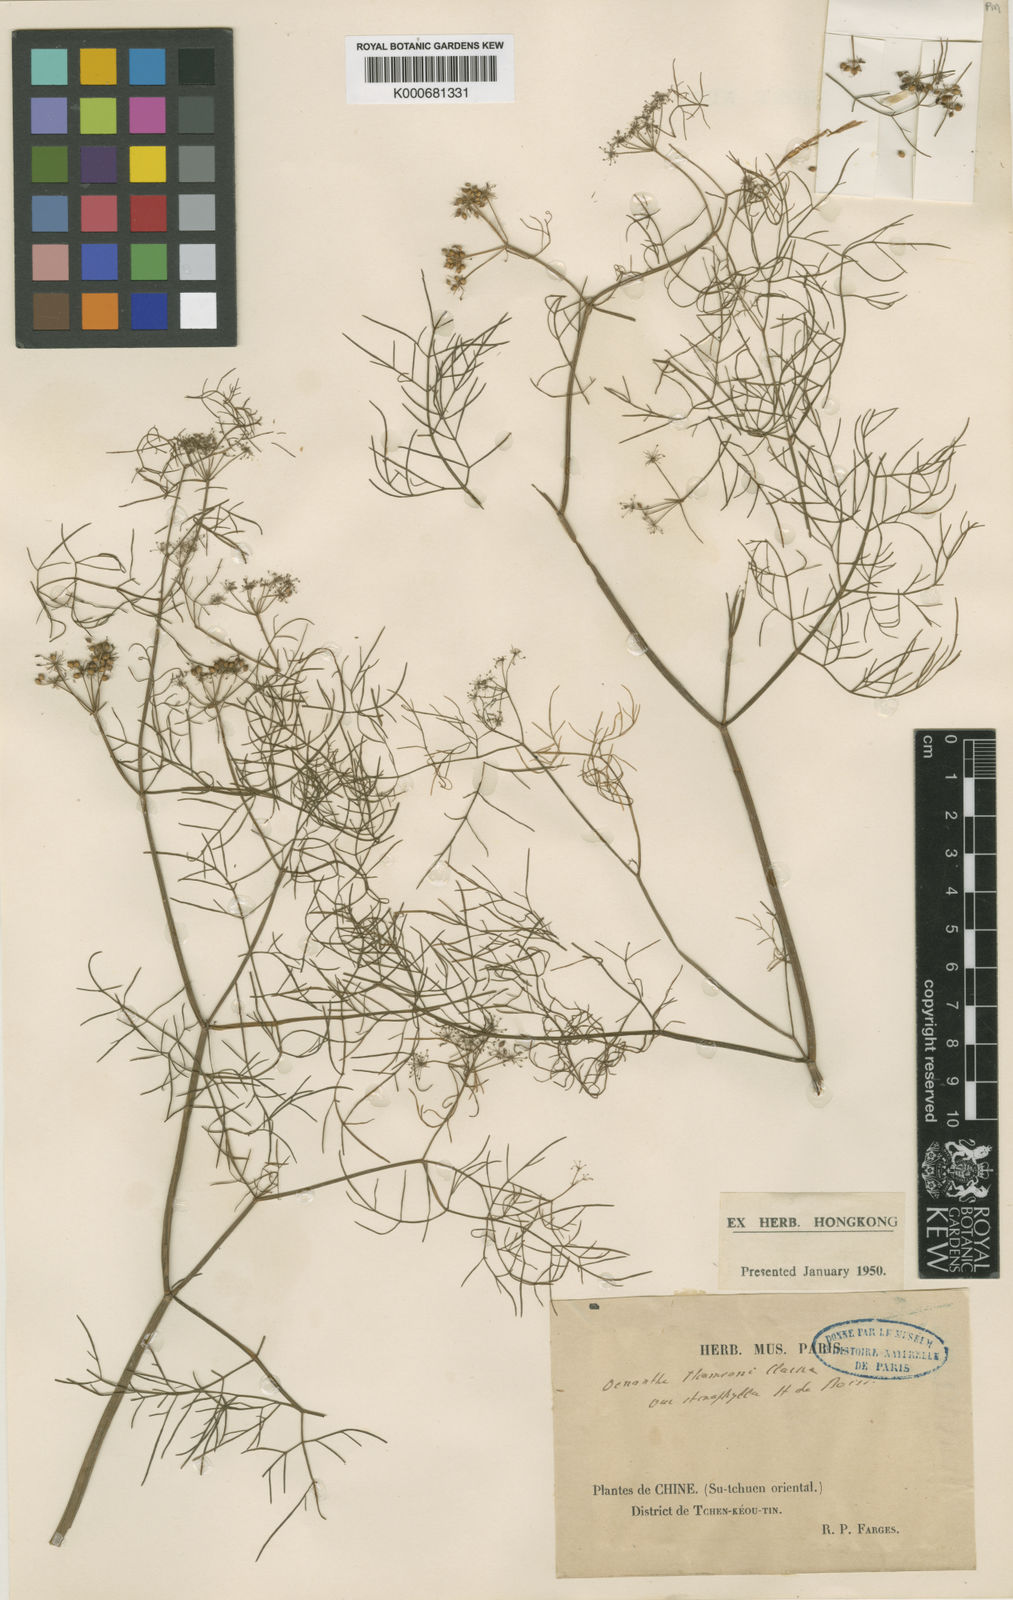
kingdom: Plantae
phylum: Tracheophyta
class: Magnoliopsida
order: Apiales
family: Apiaceae
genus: Oenanthe
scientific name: Oenanthe thomsonii
